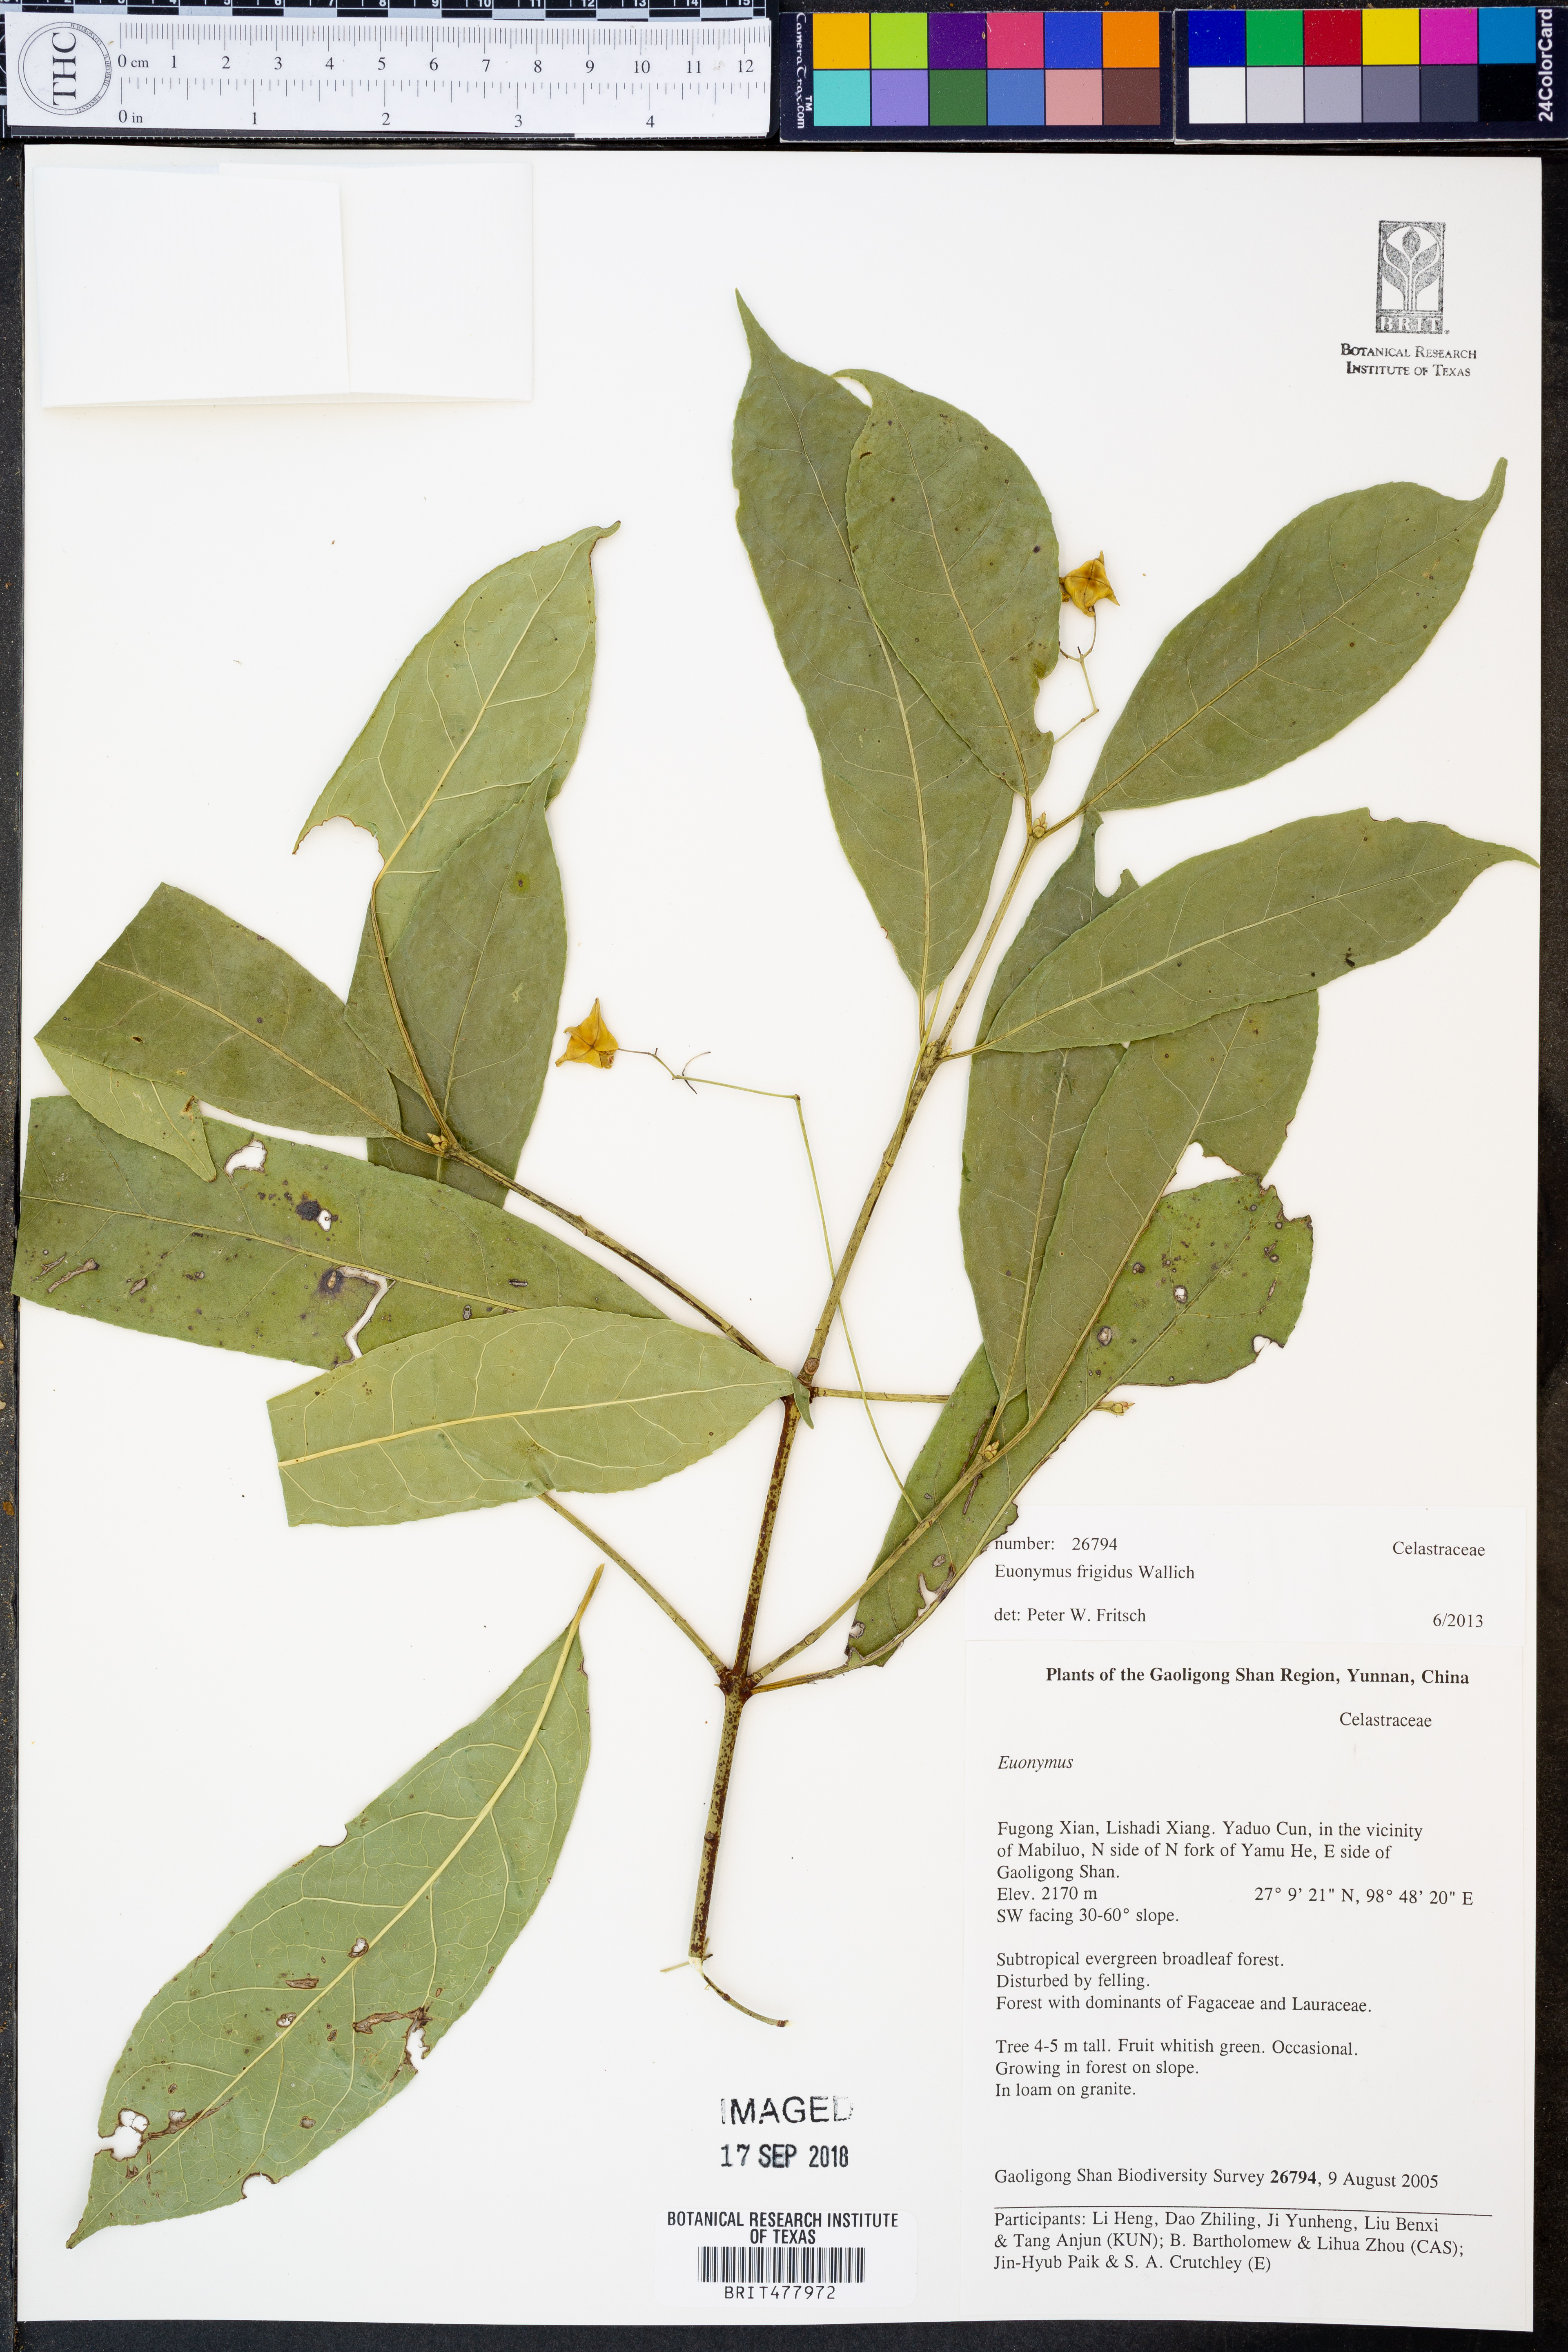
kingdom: Plantae
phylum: Tracheophyta
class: Magnoliopsida
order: Celastrales
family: Celastraceae
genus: Euonymus
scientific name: Euonymus frigidus
